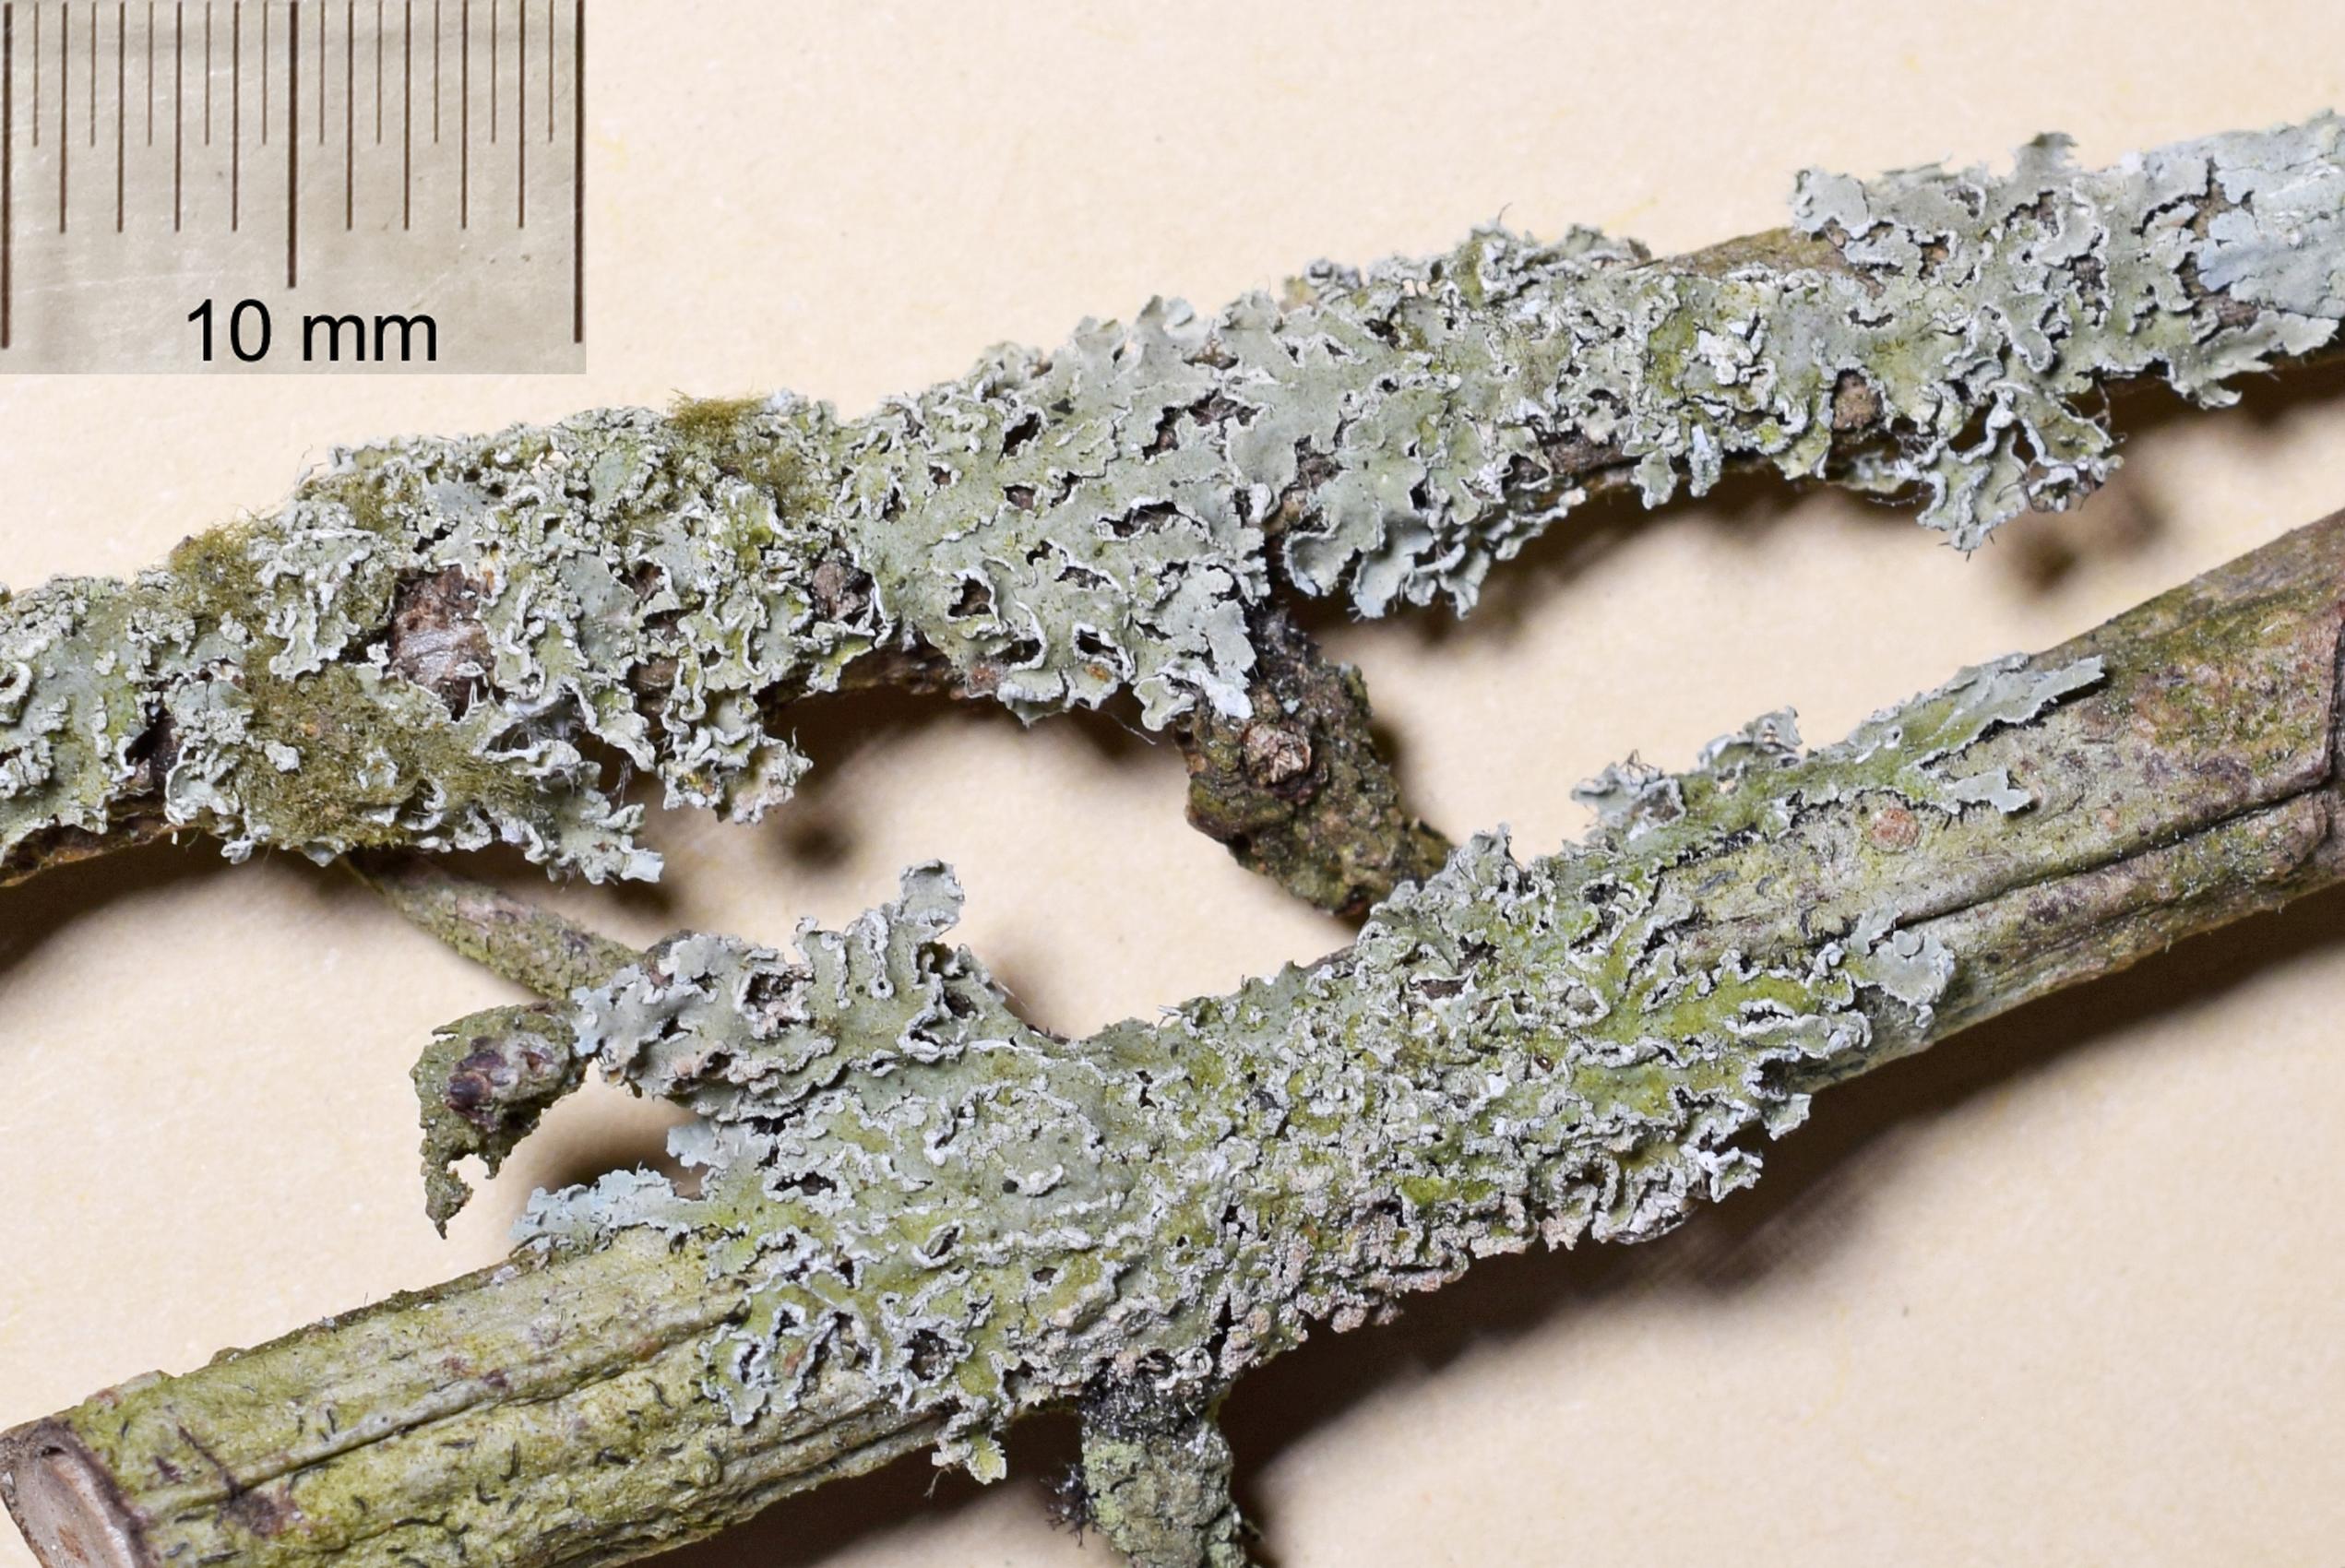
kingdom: Fungi
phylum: Ascomycota
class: Lecanoromycetes
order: Caliciales
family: Physciaceae
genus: Physcia
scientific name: Physcia
